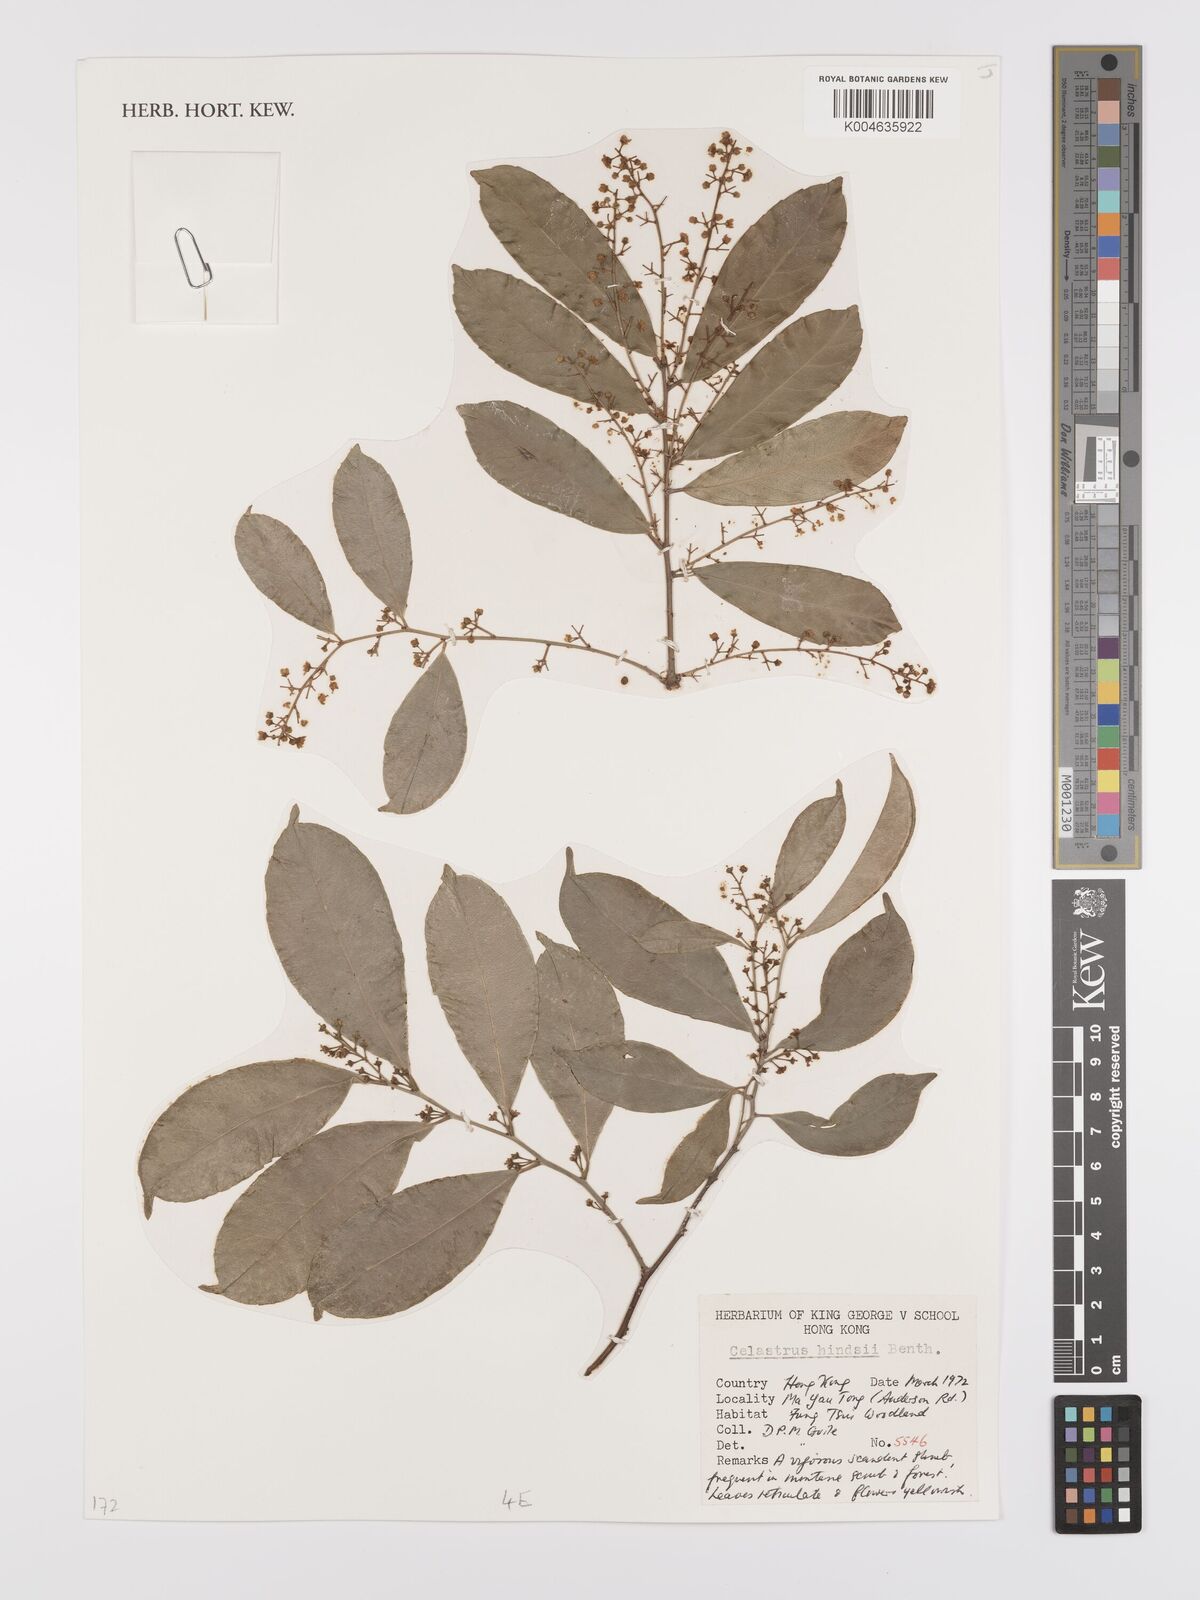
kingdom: Plantae
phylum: Tracheophyta
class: Magnoliopsida
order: Celastrales
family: Celastraceae
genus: Celastrus
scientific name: Celastrus hindsii
